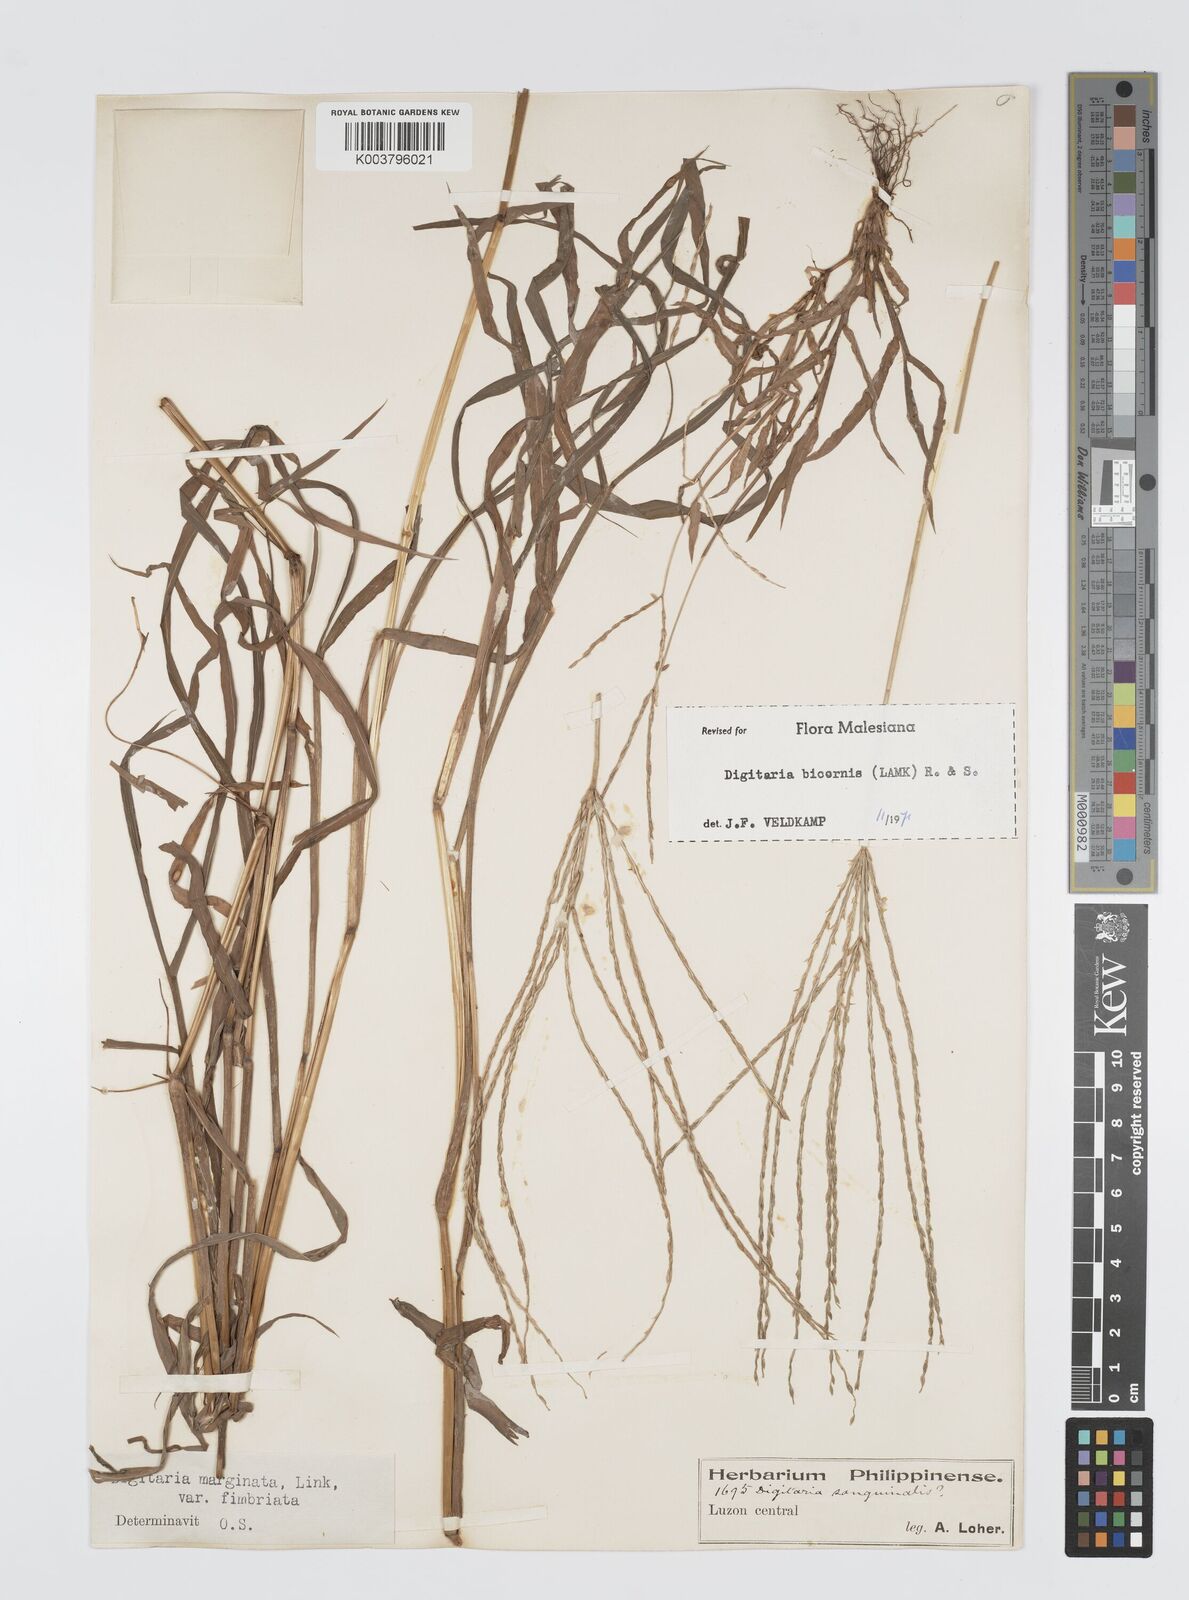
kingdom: Plantae
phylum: Tracheophyta
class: Liliopsida
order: Poales
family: Poaceae
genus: Digitaria
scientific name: Digitaria ciliaris
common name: Tropical finger-grass
